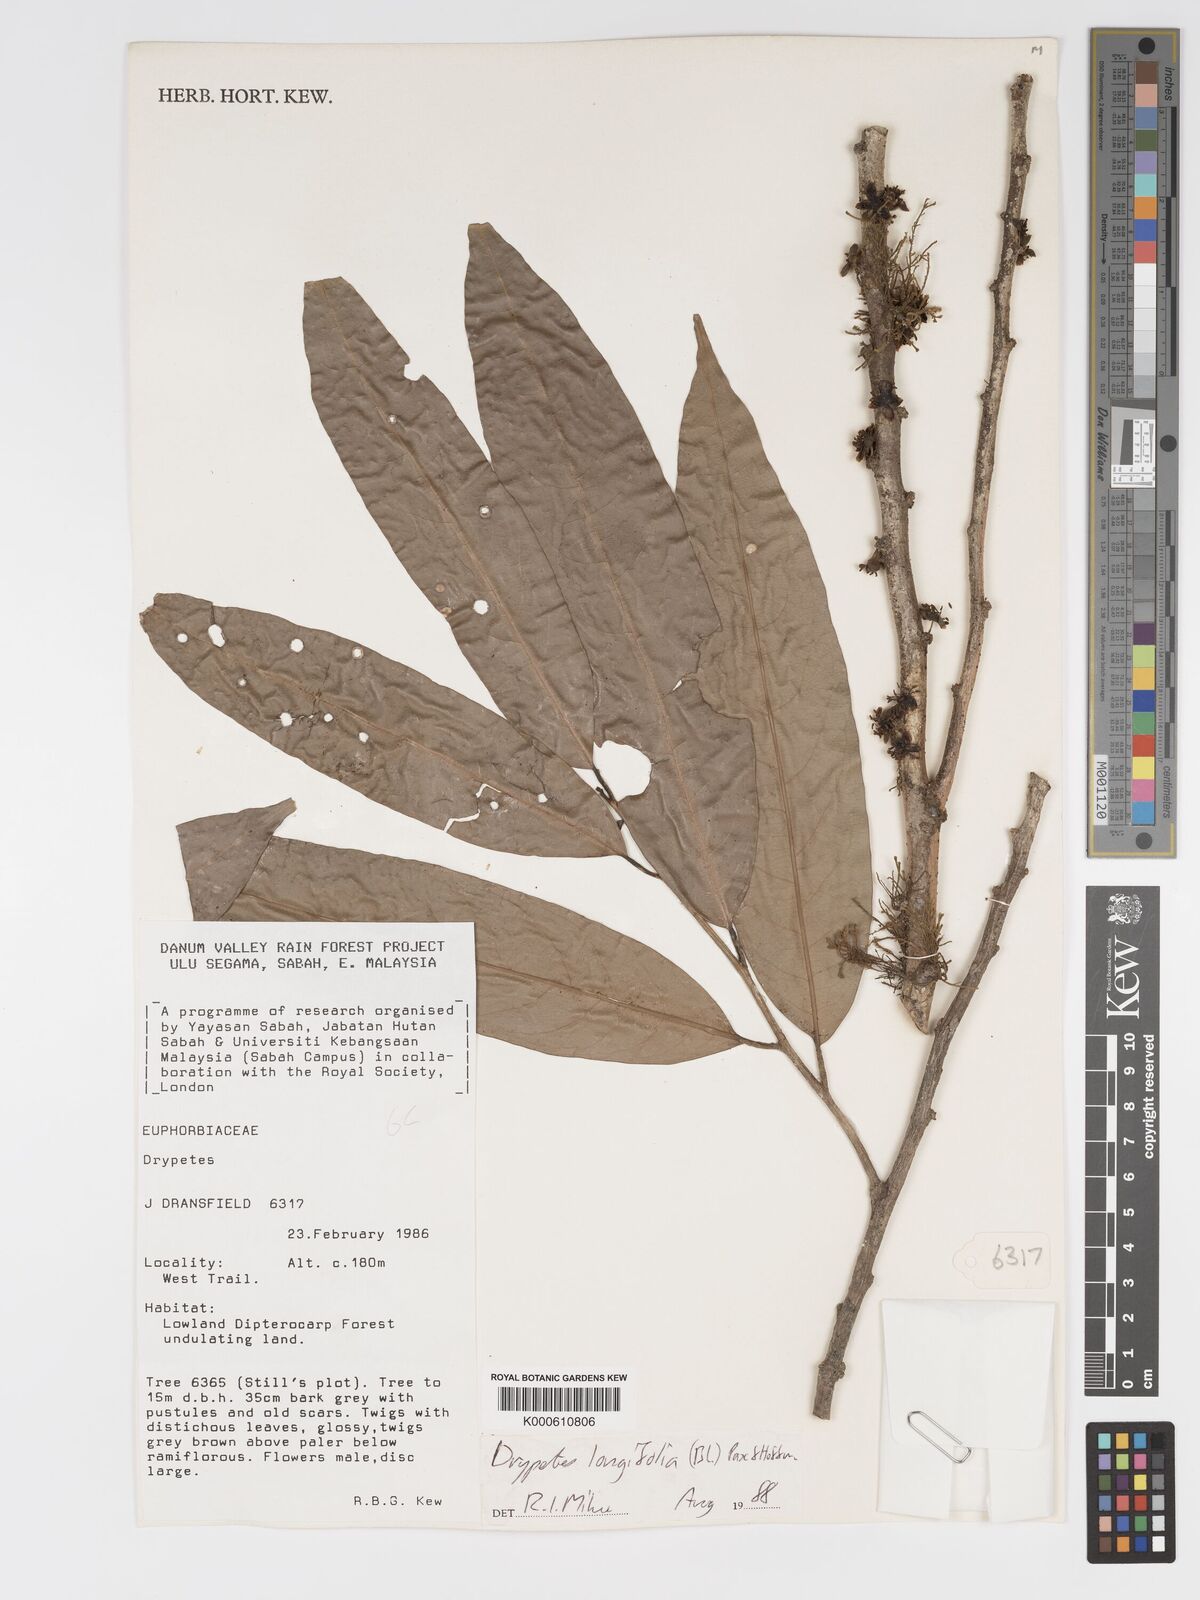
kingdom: Plantae
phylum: Tracheophyta
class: Magnoliopsida
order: Malpighiales
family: Putranjivaceae
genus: Drypetes
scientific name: Drypetes longifolia
